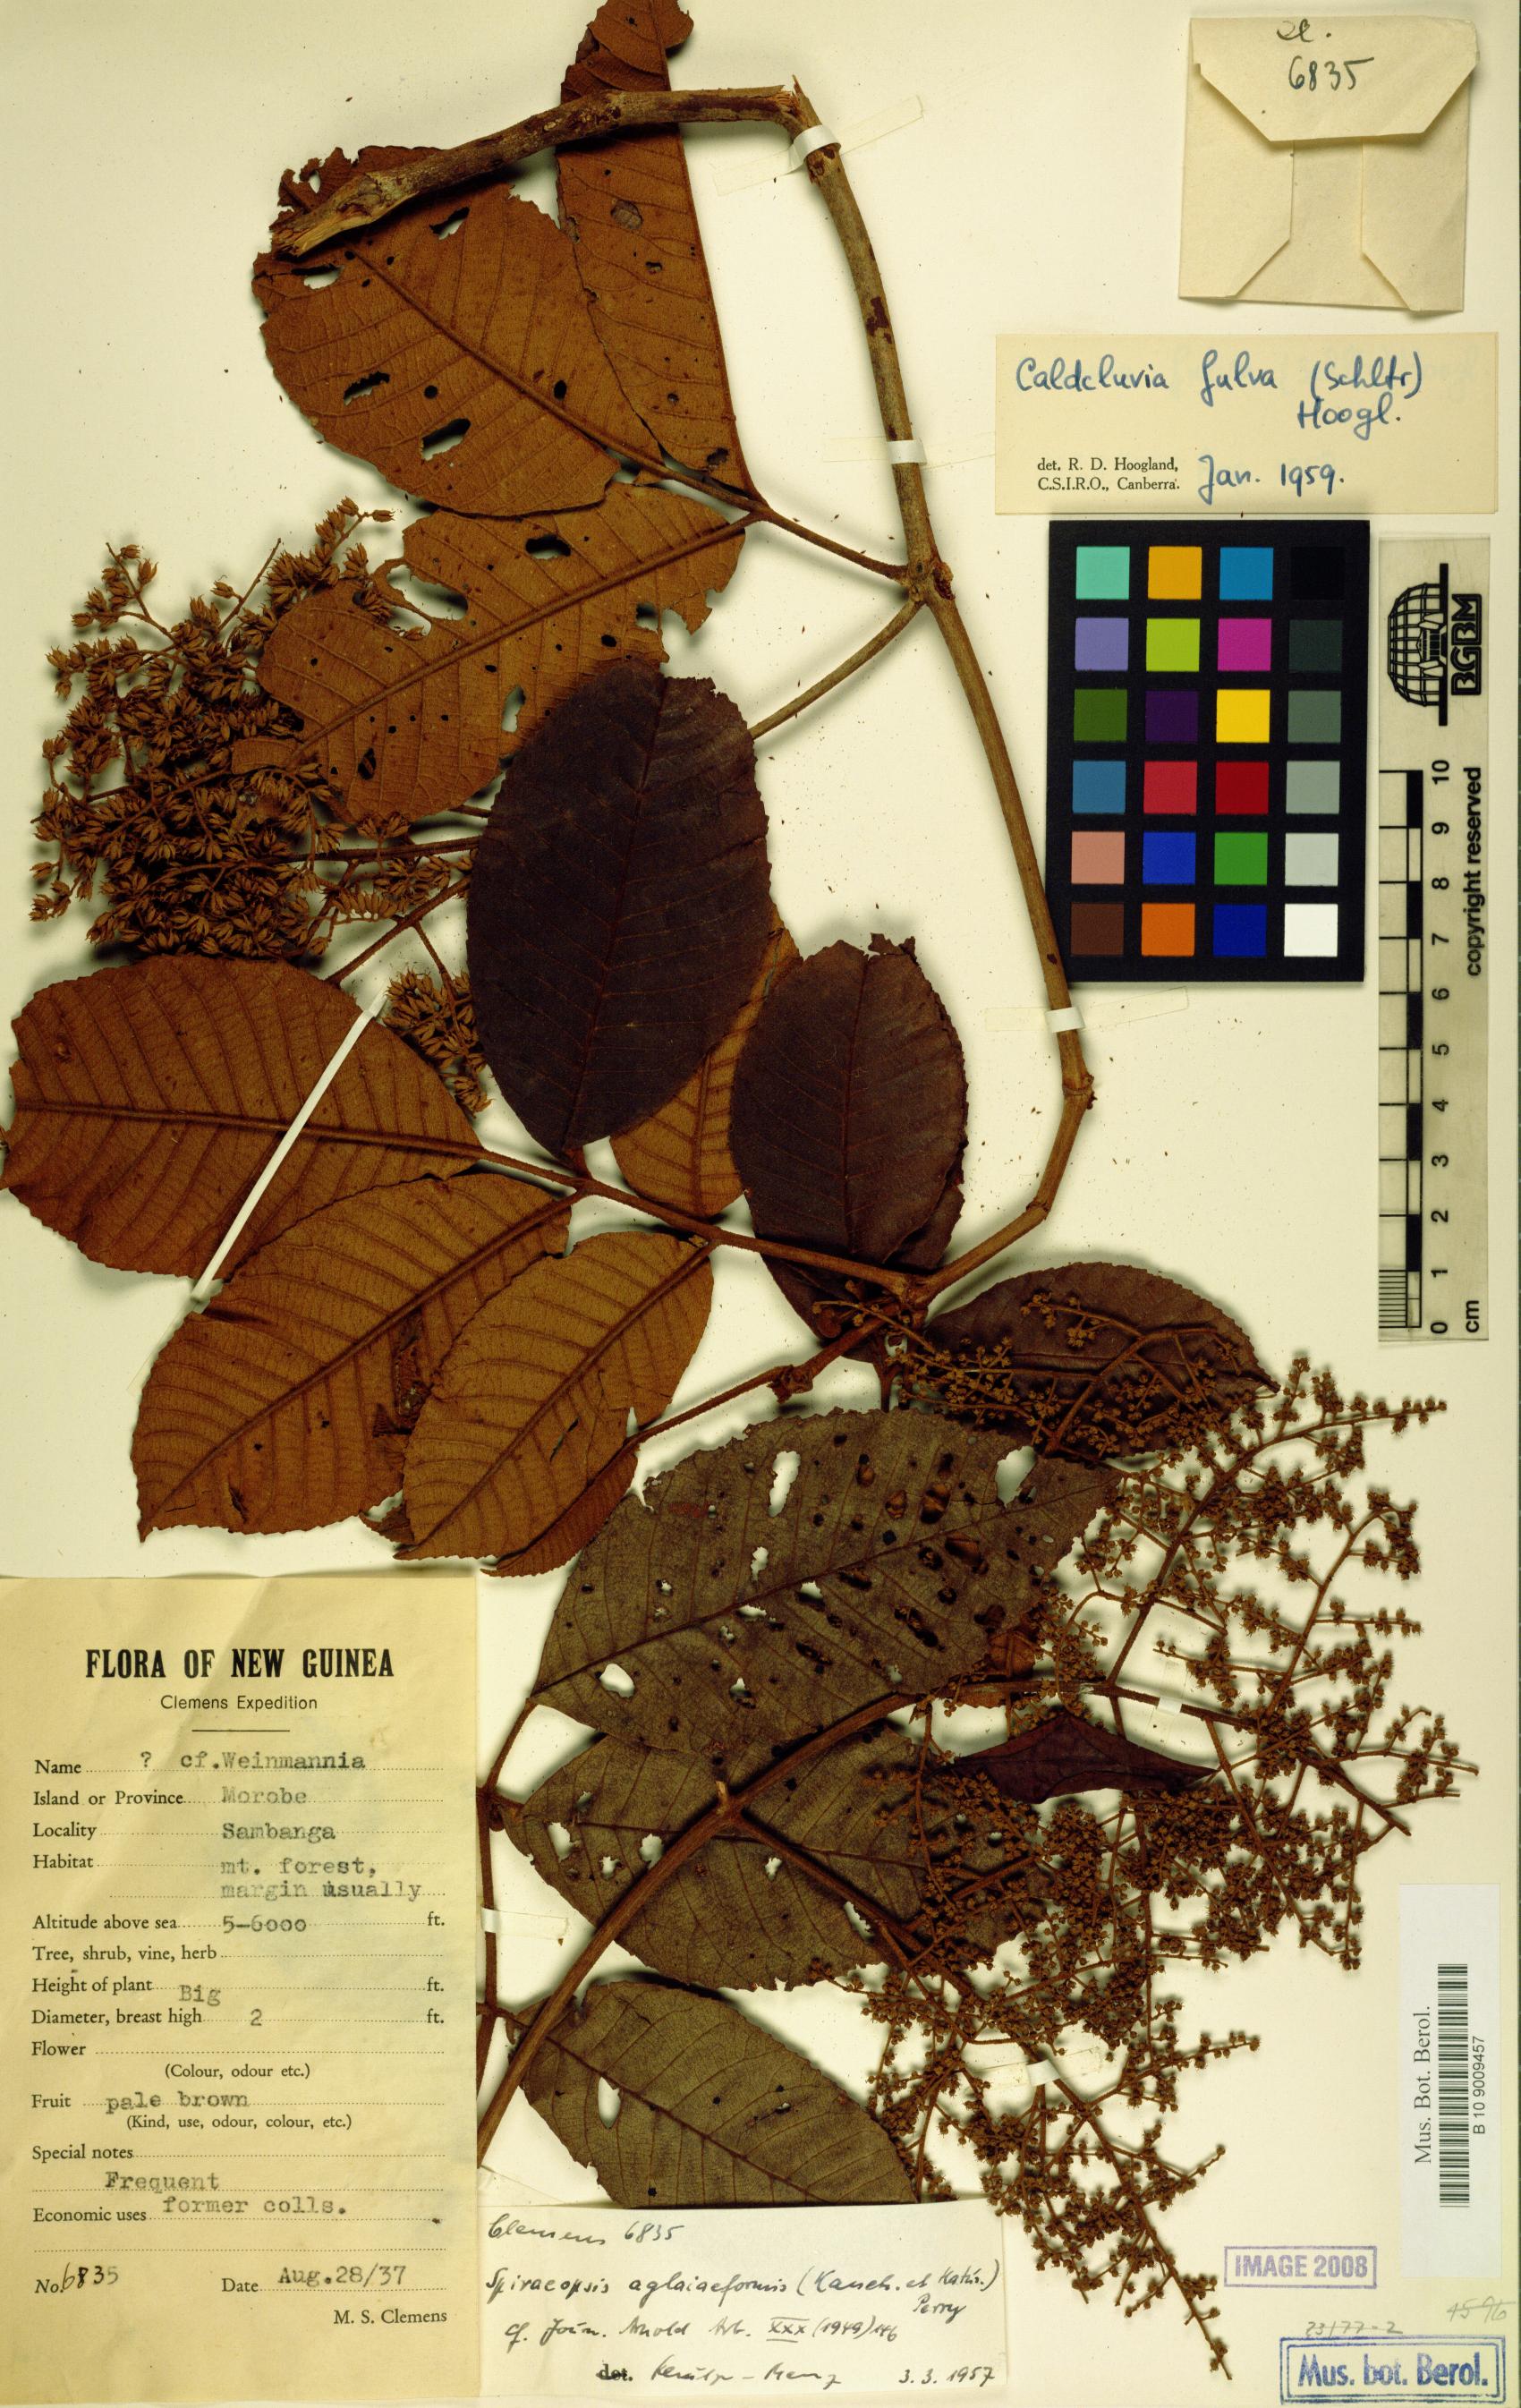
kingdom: Plantae
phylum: Tracheophyta
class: Magnoliopsida
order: Oxalidales
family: Cunoniaceae
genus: Ackama
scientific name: Ackama fulva
